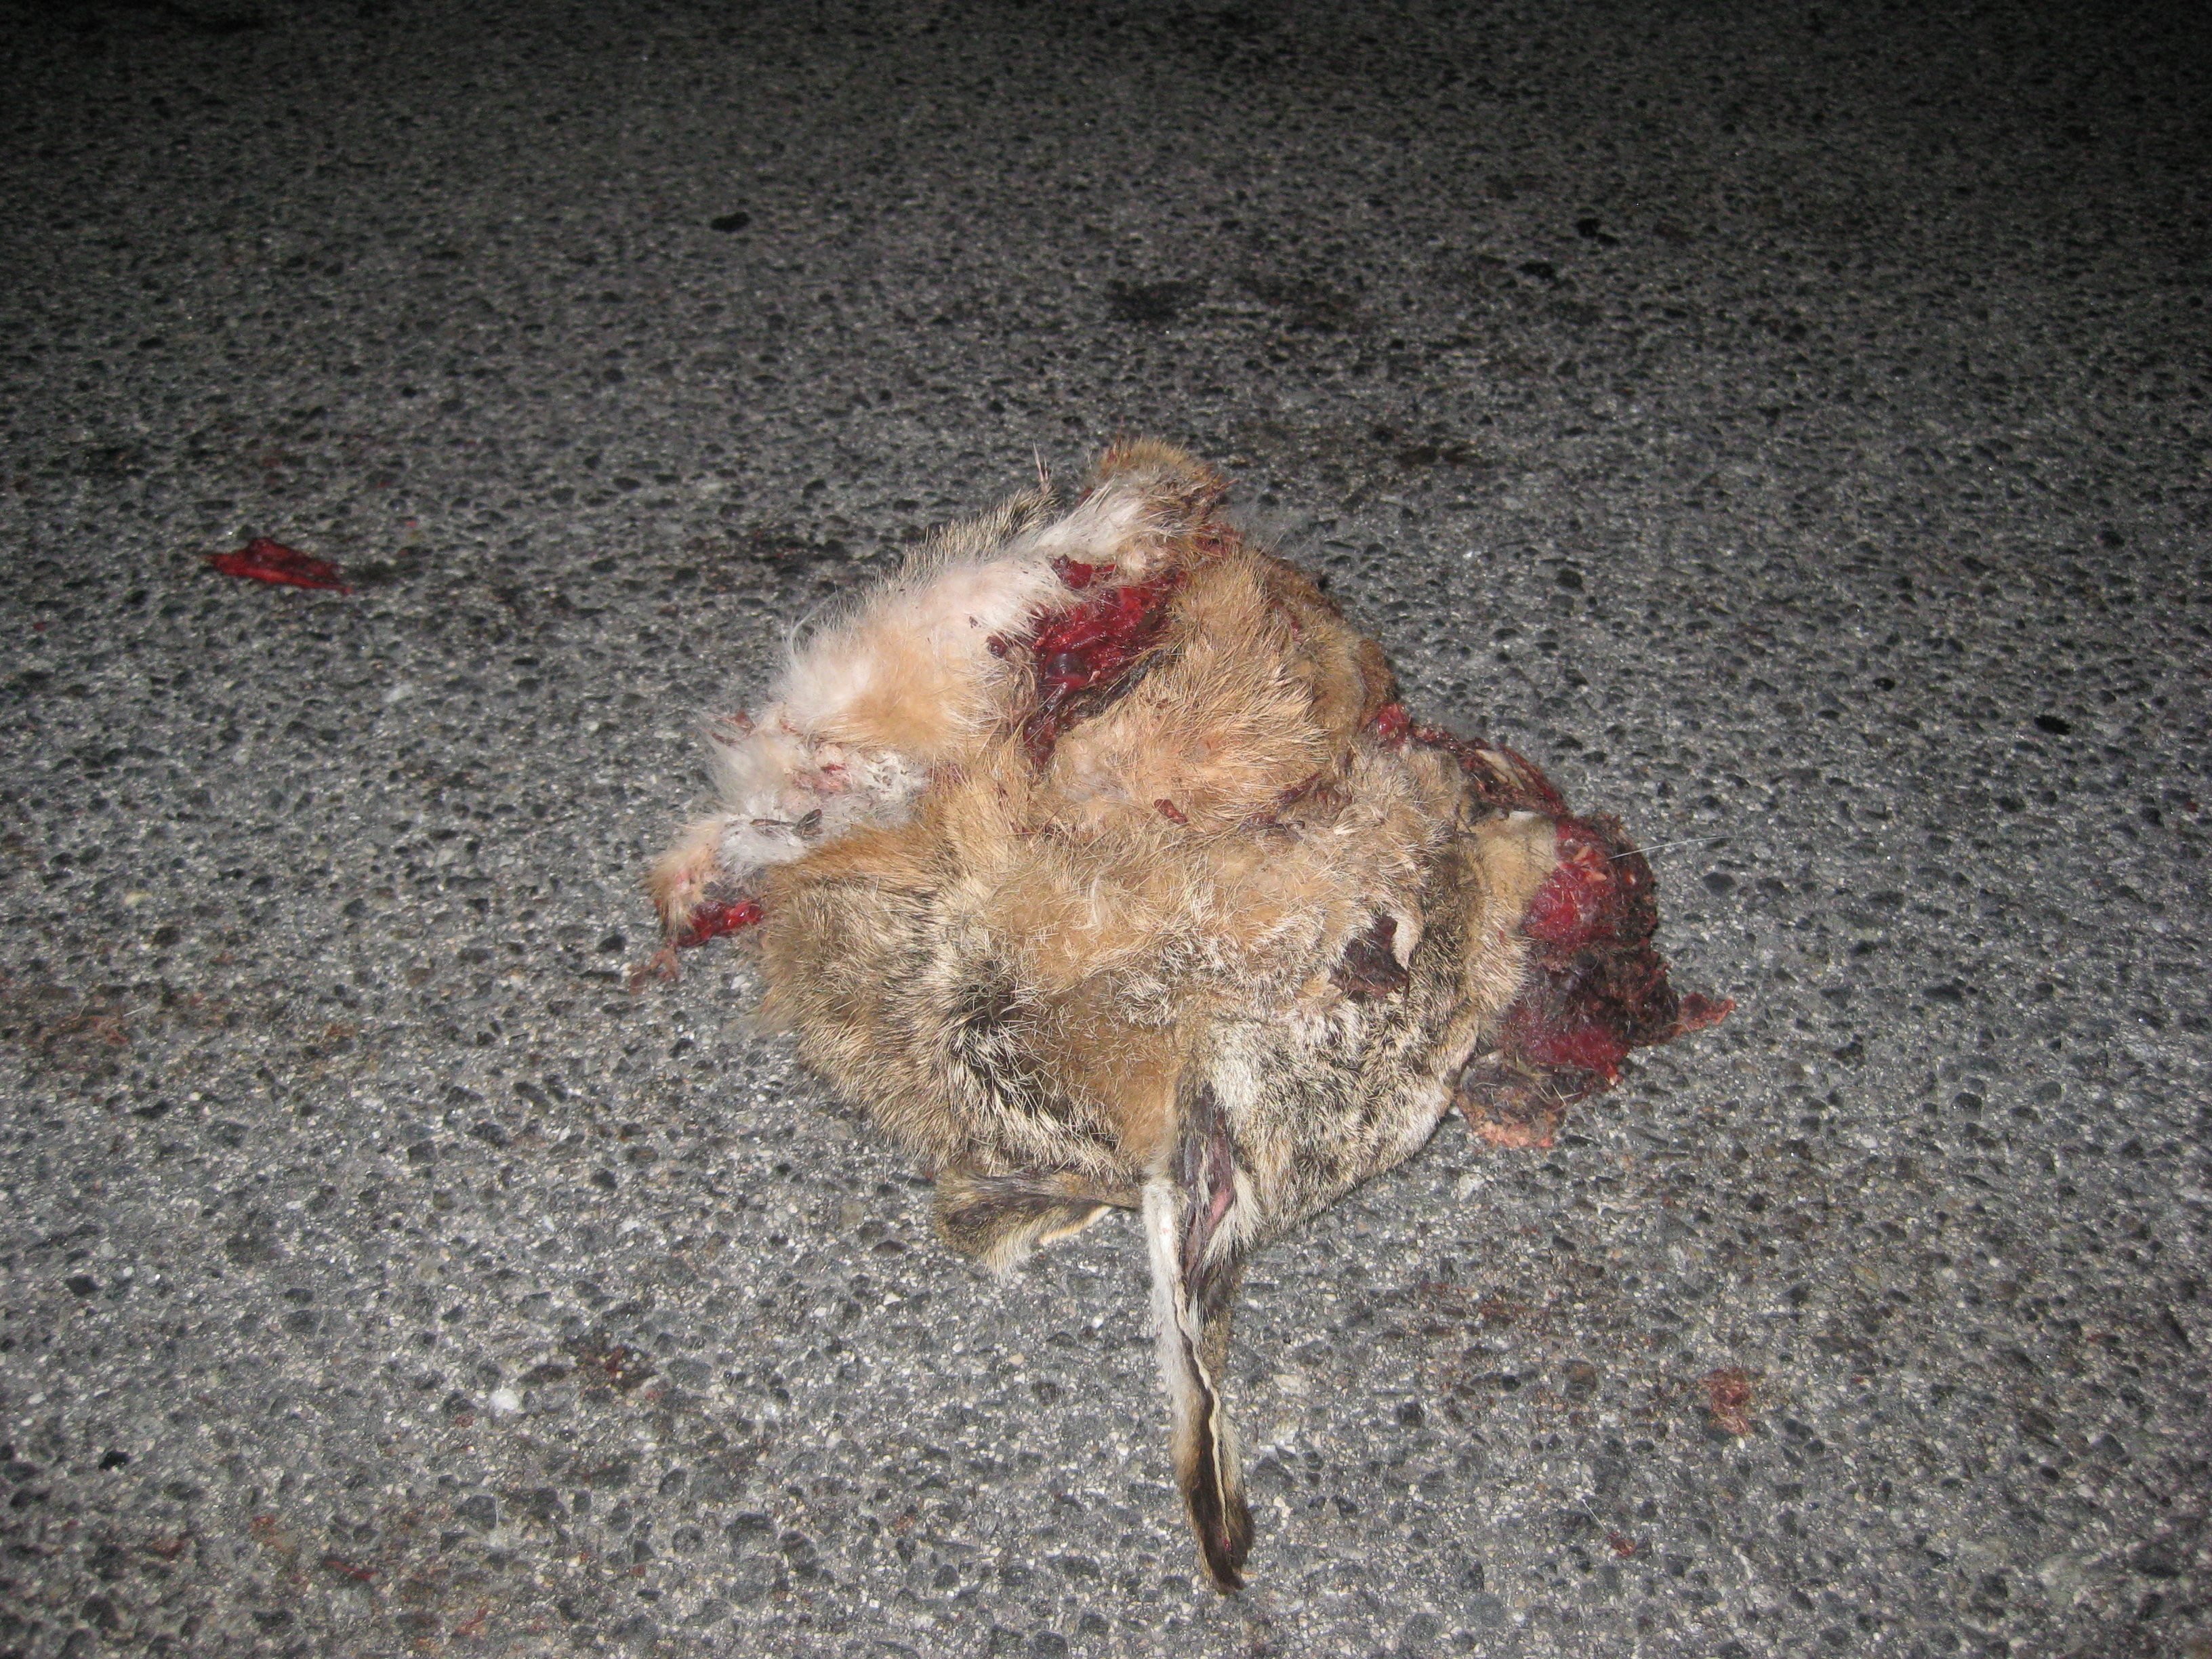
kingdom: Animalia
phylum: Chordata
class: Mammalia
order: Lagomorpha
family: Leporidae
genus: Lepus
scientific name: Lepus europaeus
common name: European hare
